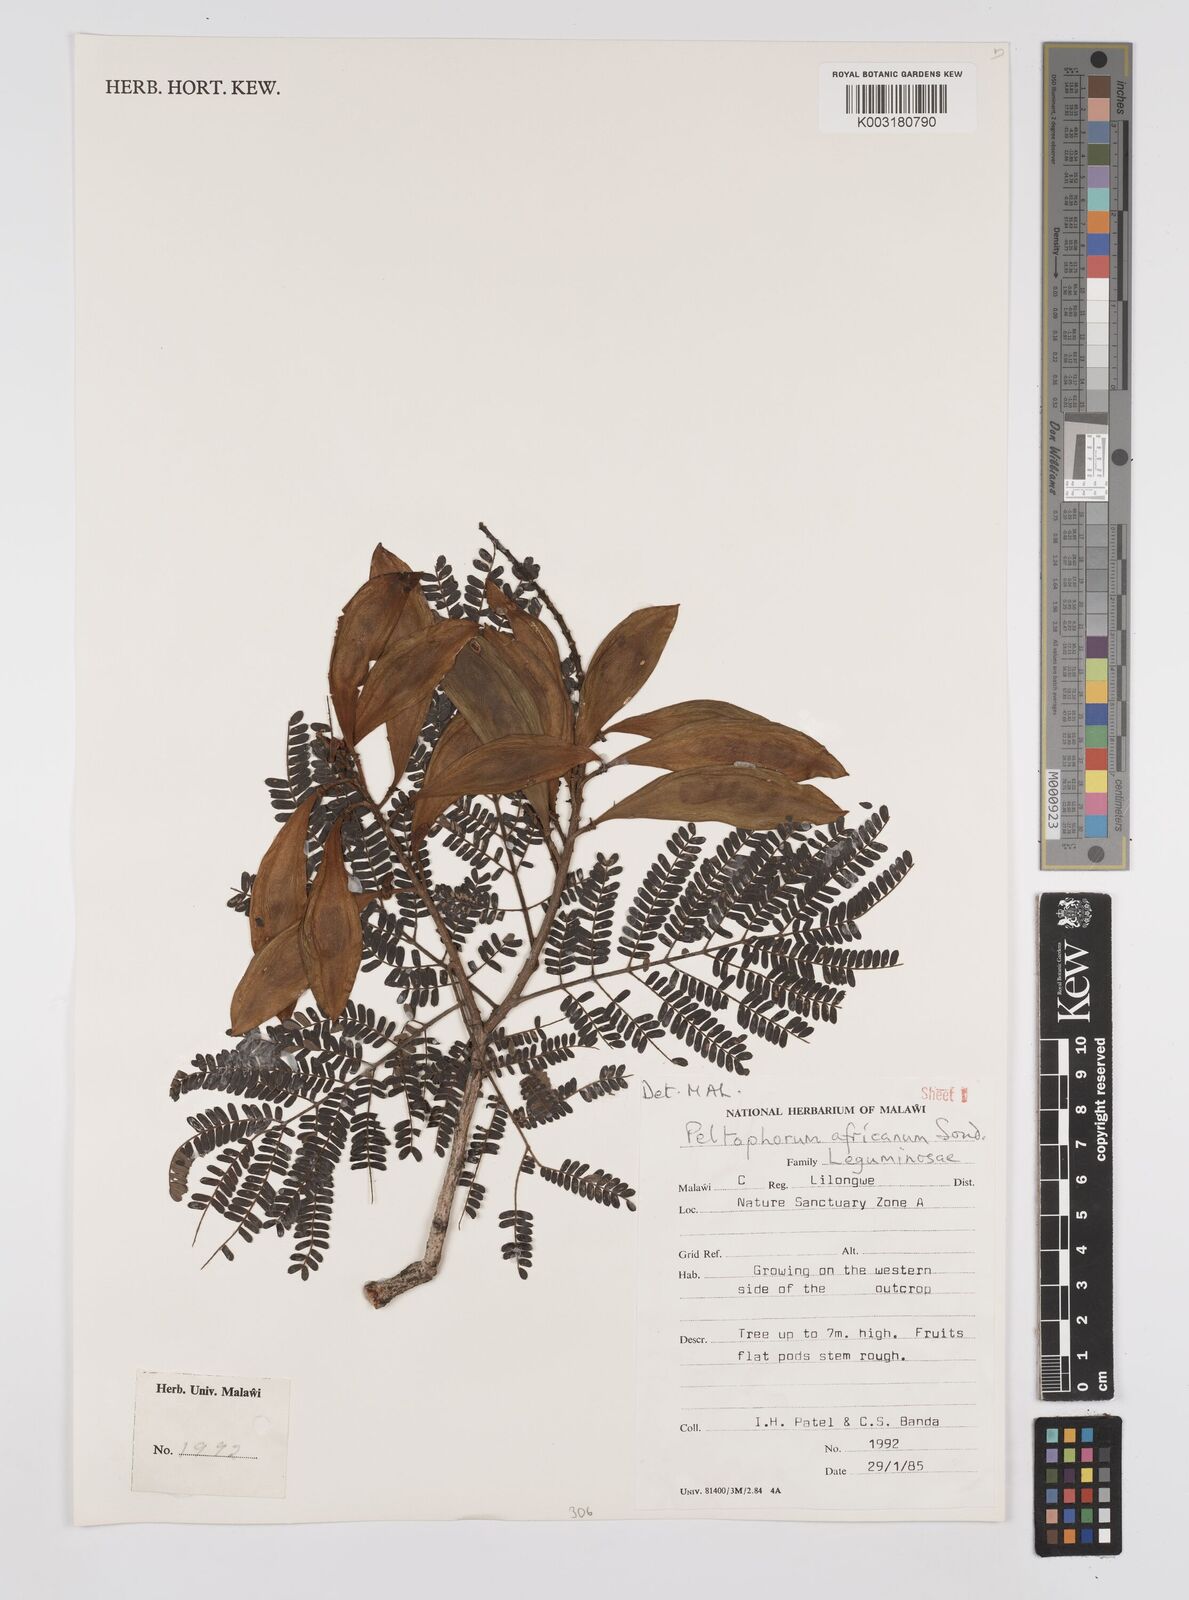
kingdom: Plantae
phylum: Tracheophyta
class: Magnoliopsida
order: Fabales
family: Fabaceae
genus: Peltophorum
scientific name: Peltophorum africanum
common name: African black wattle
